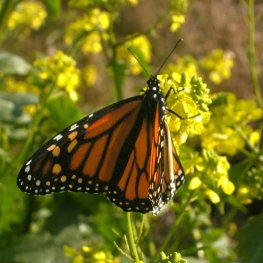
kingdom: Animalia
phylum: Arthropoda
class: Insecta
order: Lepidoptera
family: Nymphalidae
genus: Danaus
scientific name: Danaus plexippus
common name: Monarch
